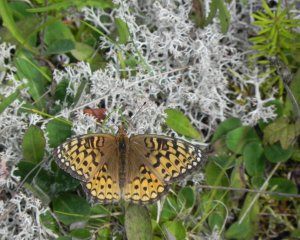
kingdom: Animalia
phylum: Arthropoda
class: Insecta
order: Lepidoptera
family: Nymphalidae
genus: Speyeria
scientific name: Speyeria atlantis
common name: Atlantis Fritillary
